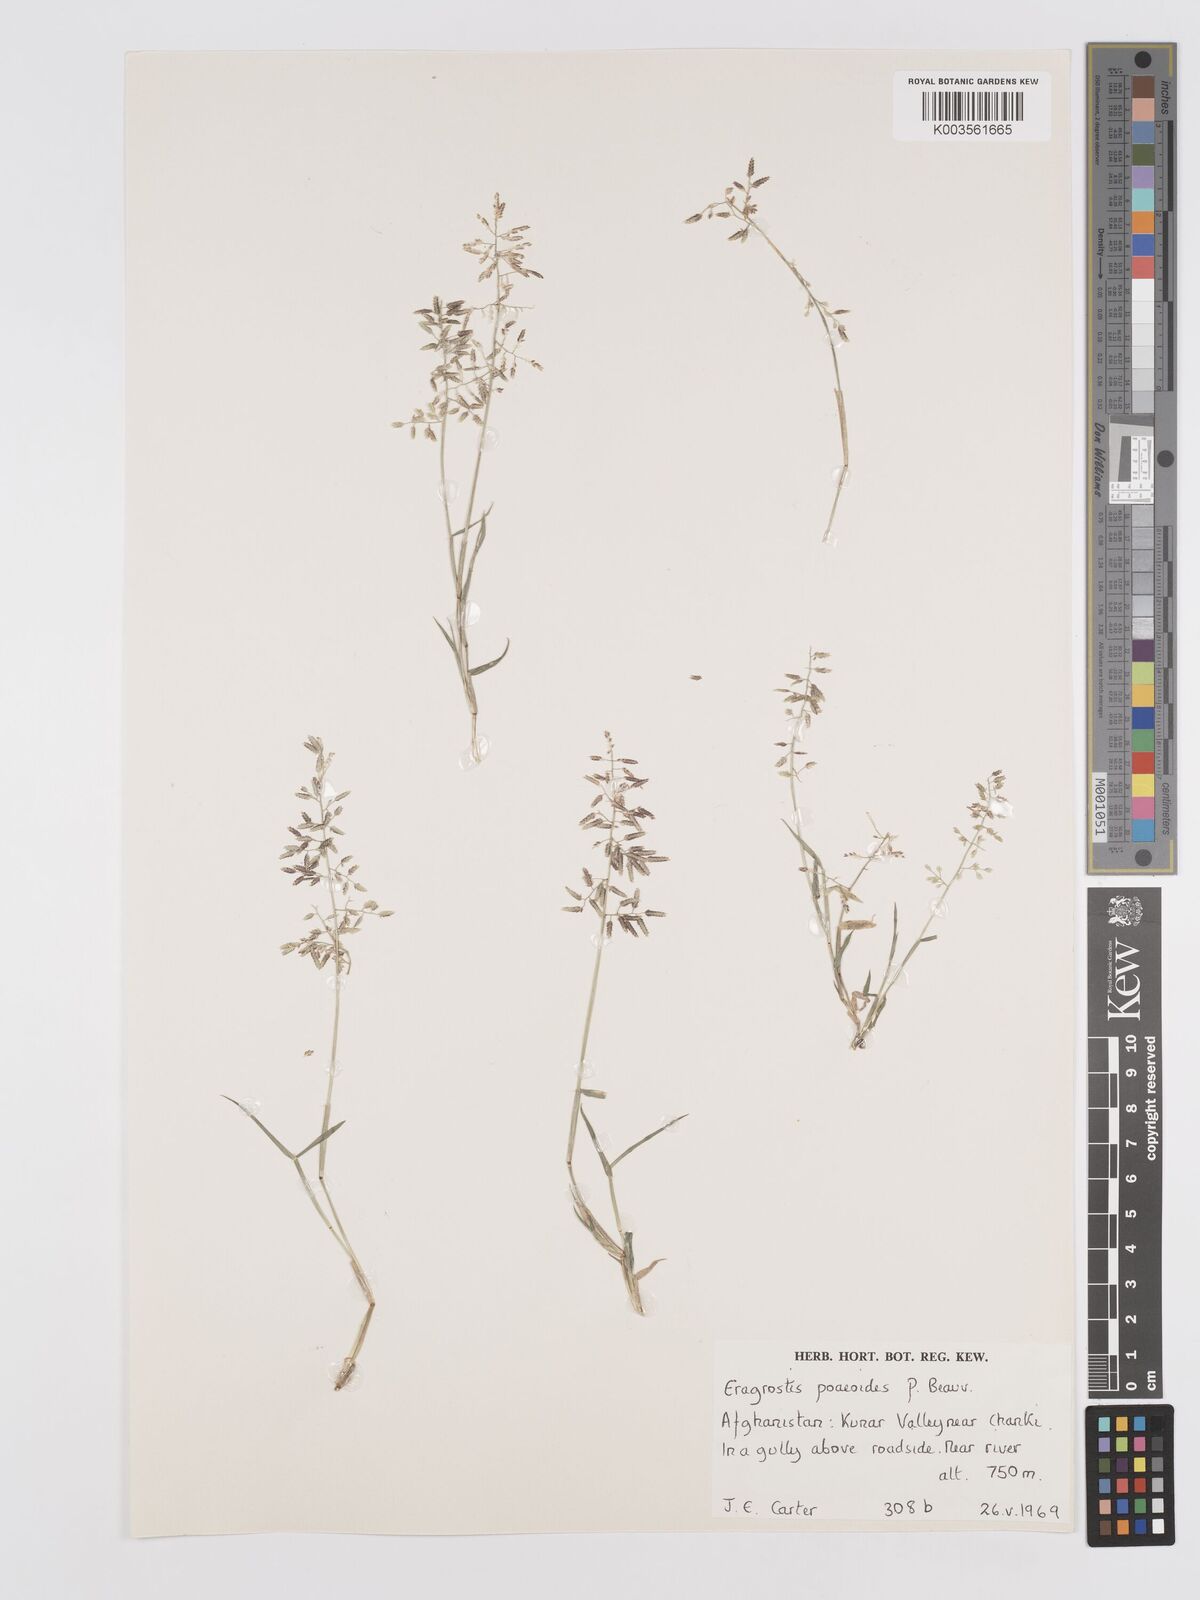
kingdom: Plantae
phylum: Tracheophyta
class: Liliopsida
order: Poales
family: Poaceae
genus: Eragrostis
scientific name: Eragrostis minor
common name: Small love-grass
